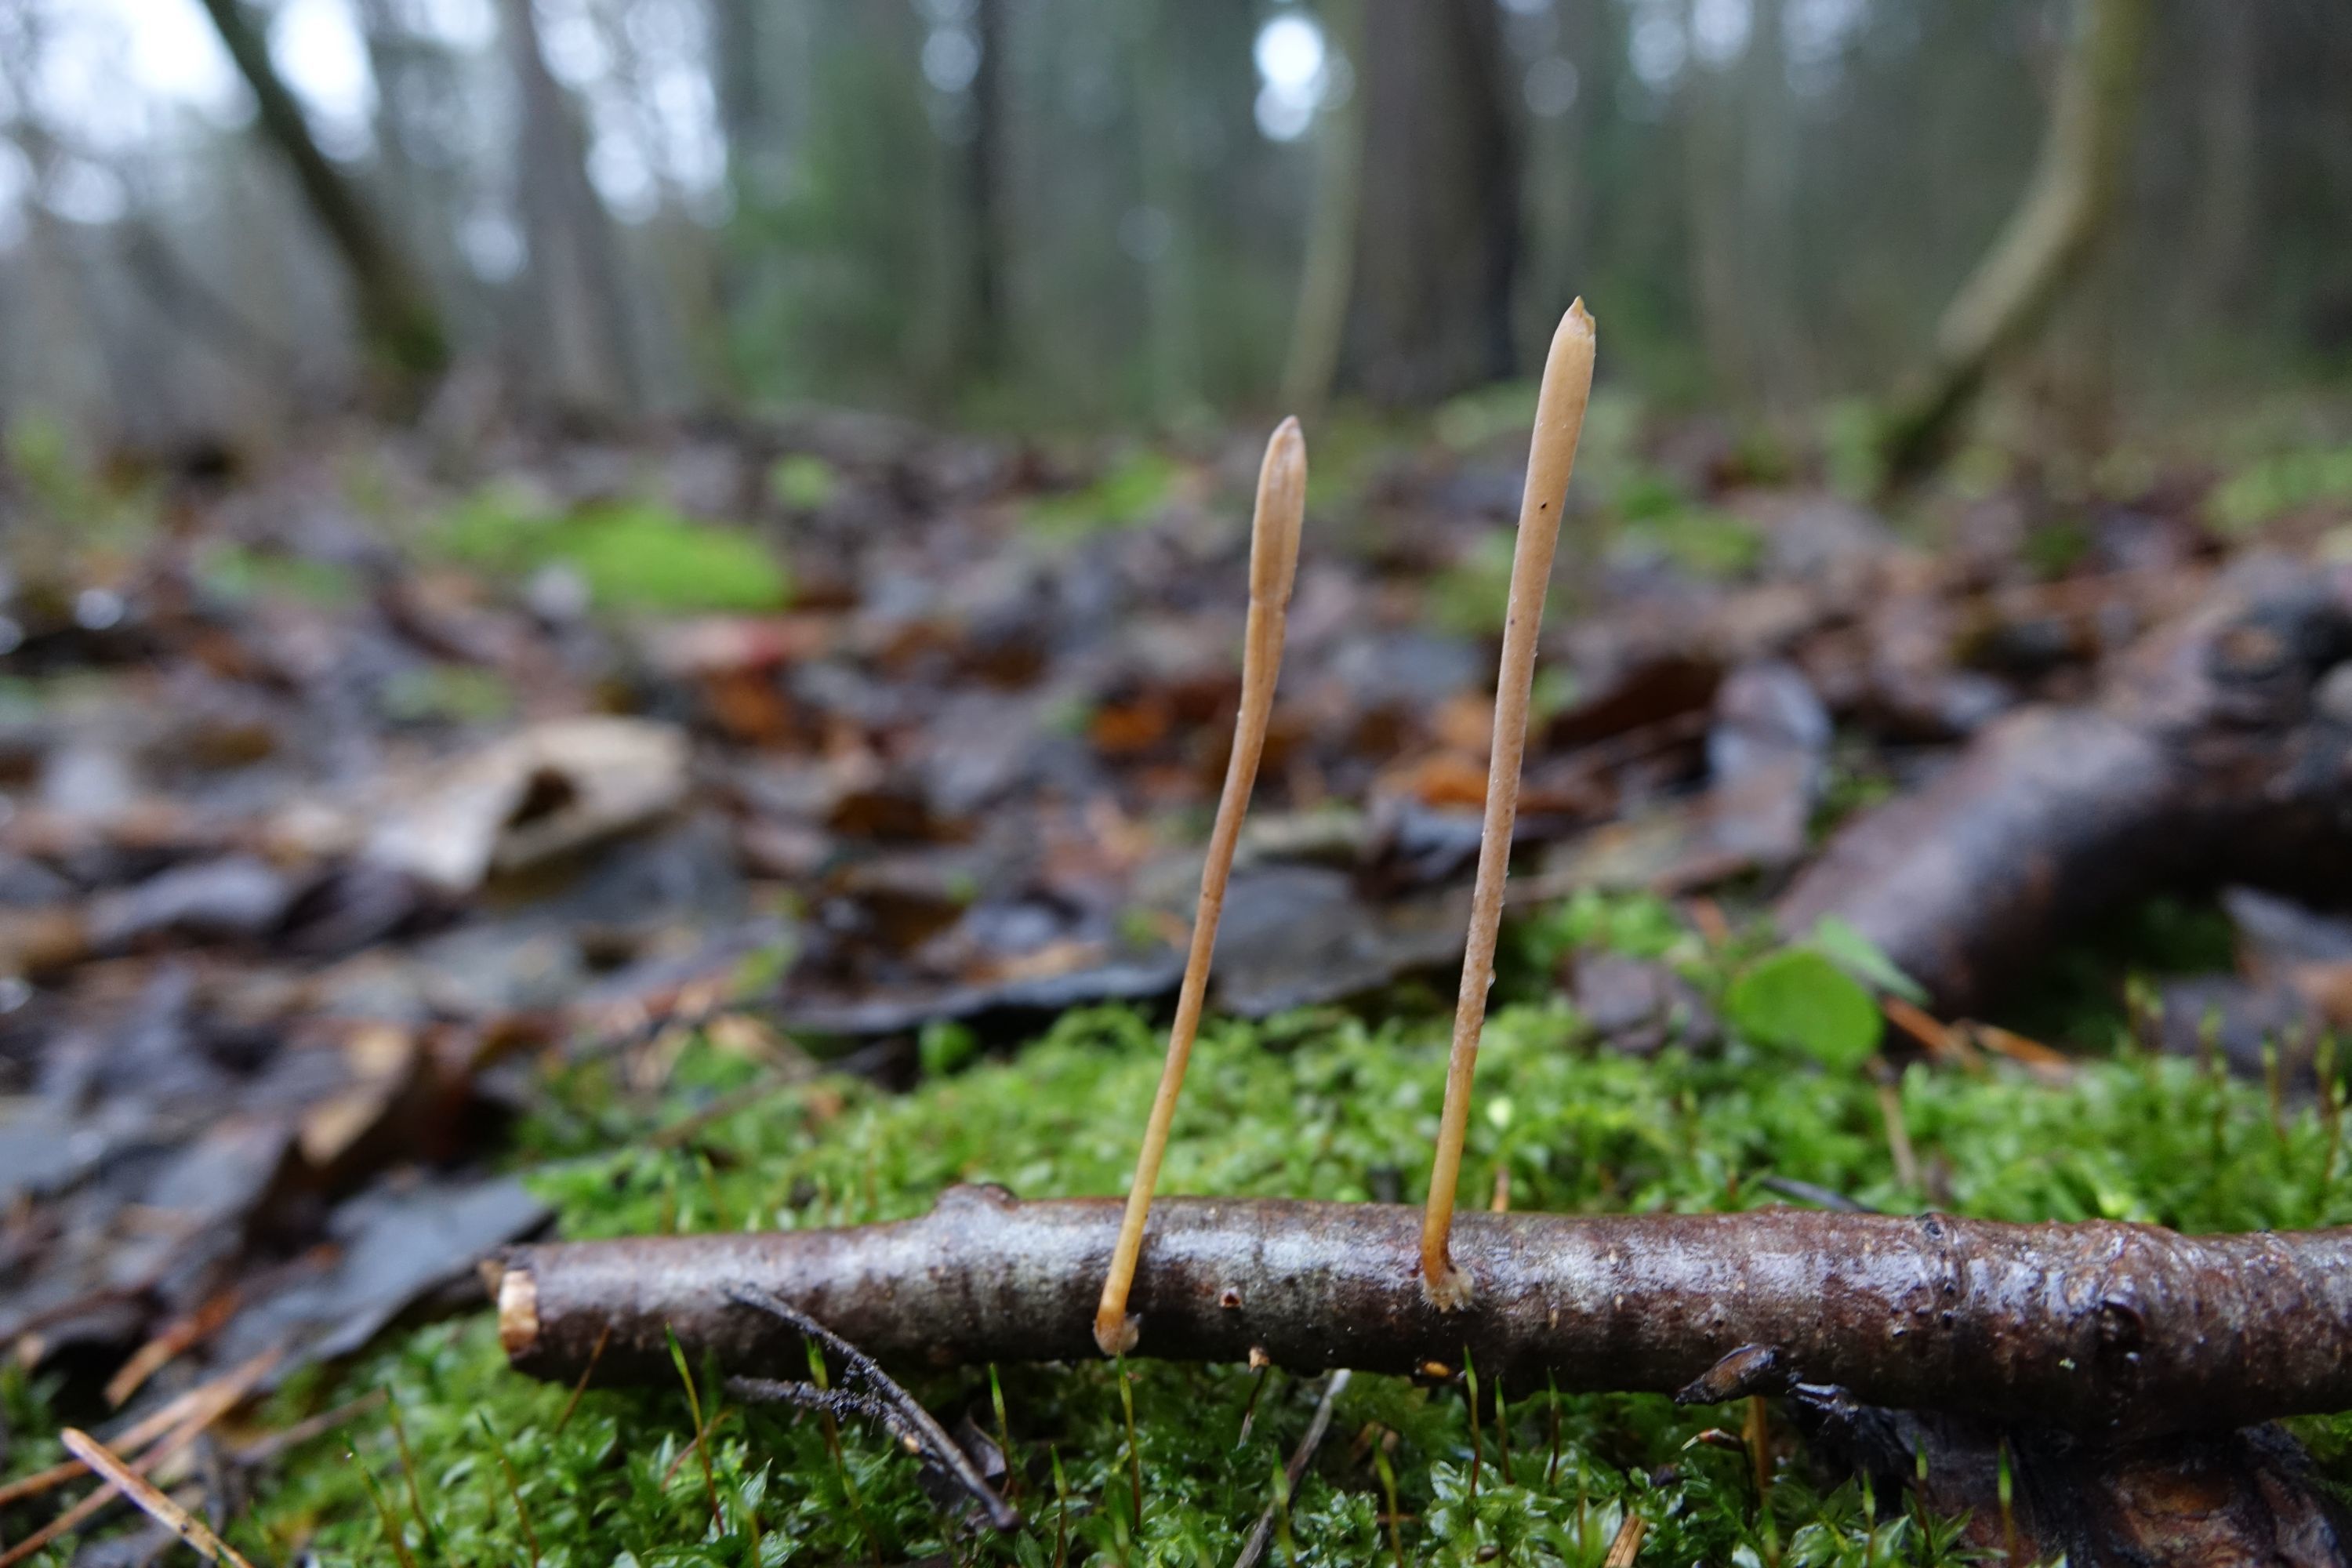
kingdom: Fungi
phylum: Basidiomycota
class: Agaricomycetes
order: Agaricales
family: Typhulaceae
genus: Typhula
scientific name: Typhula contorta
